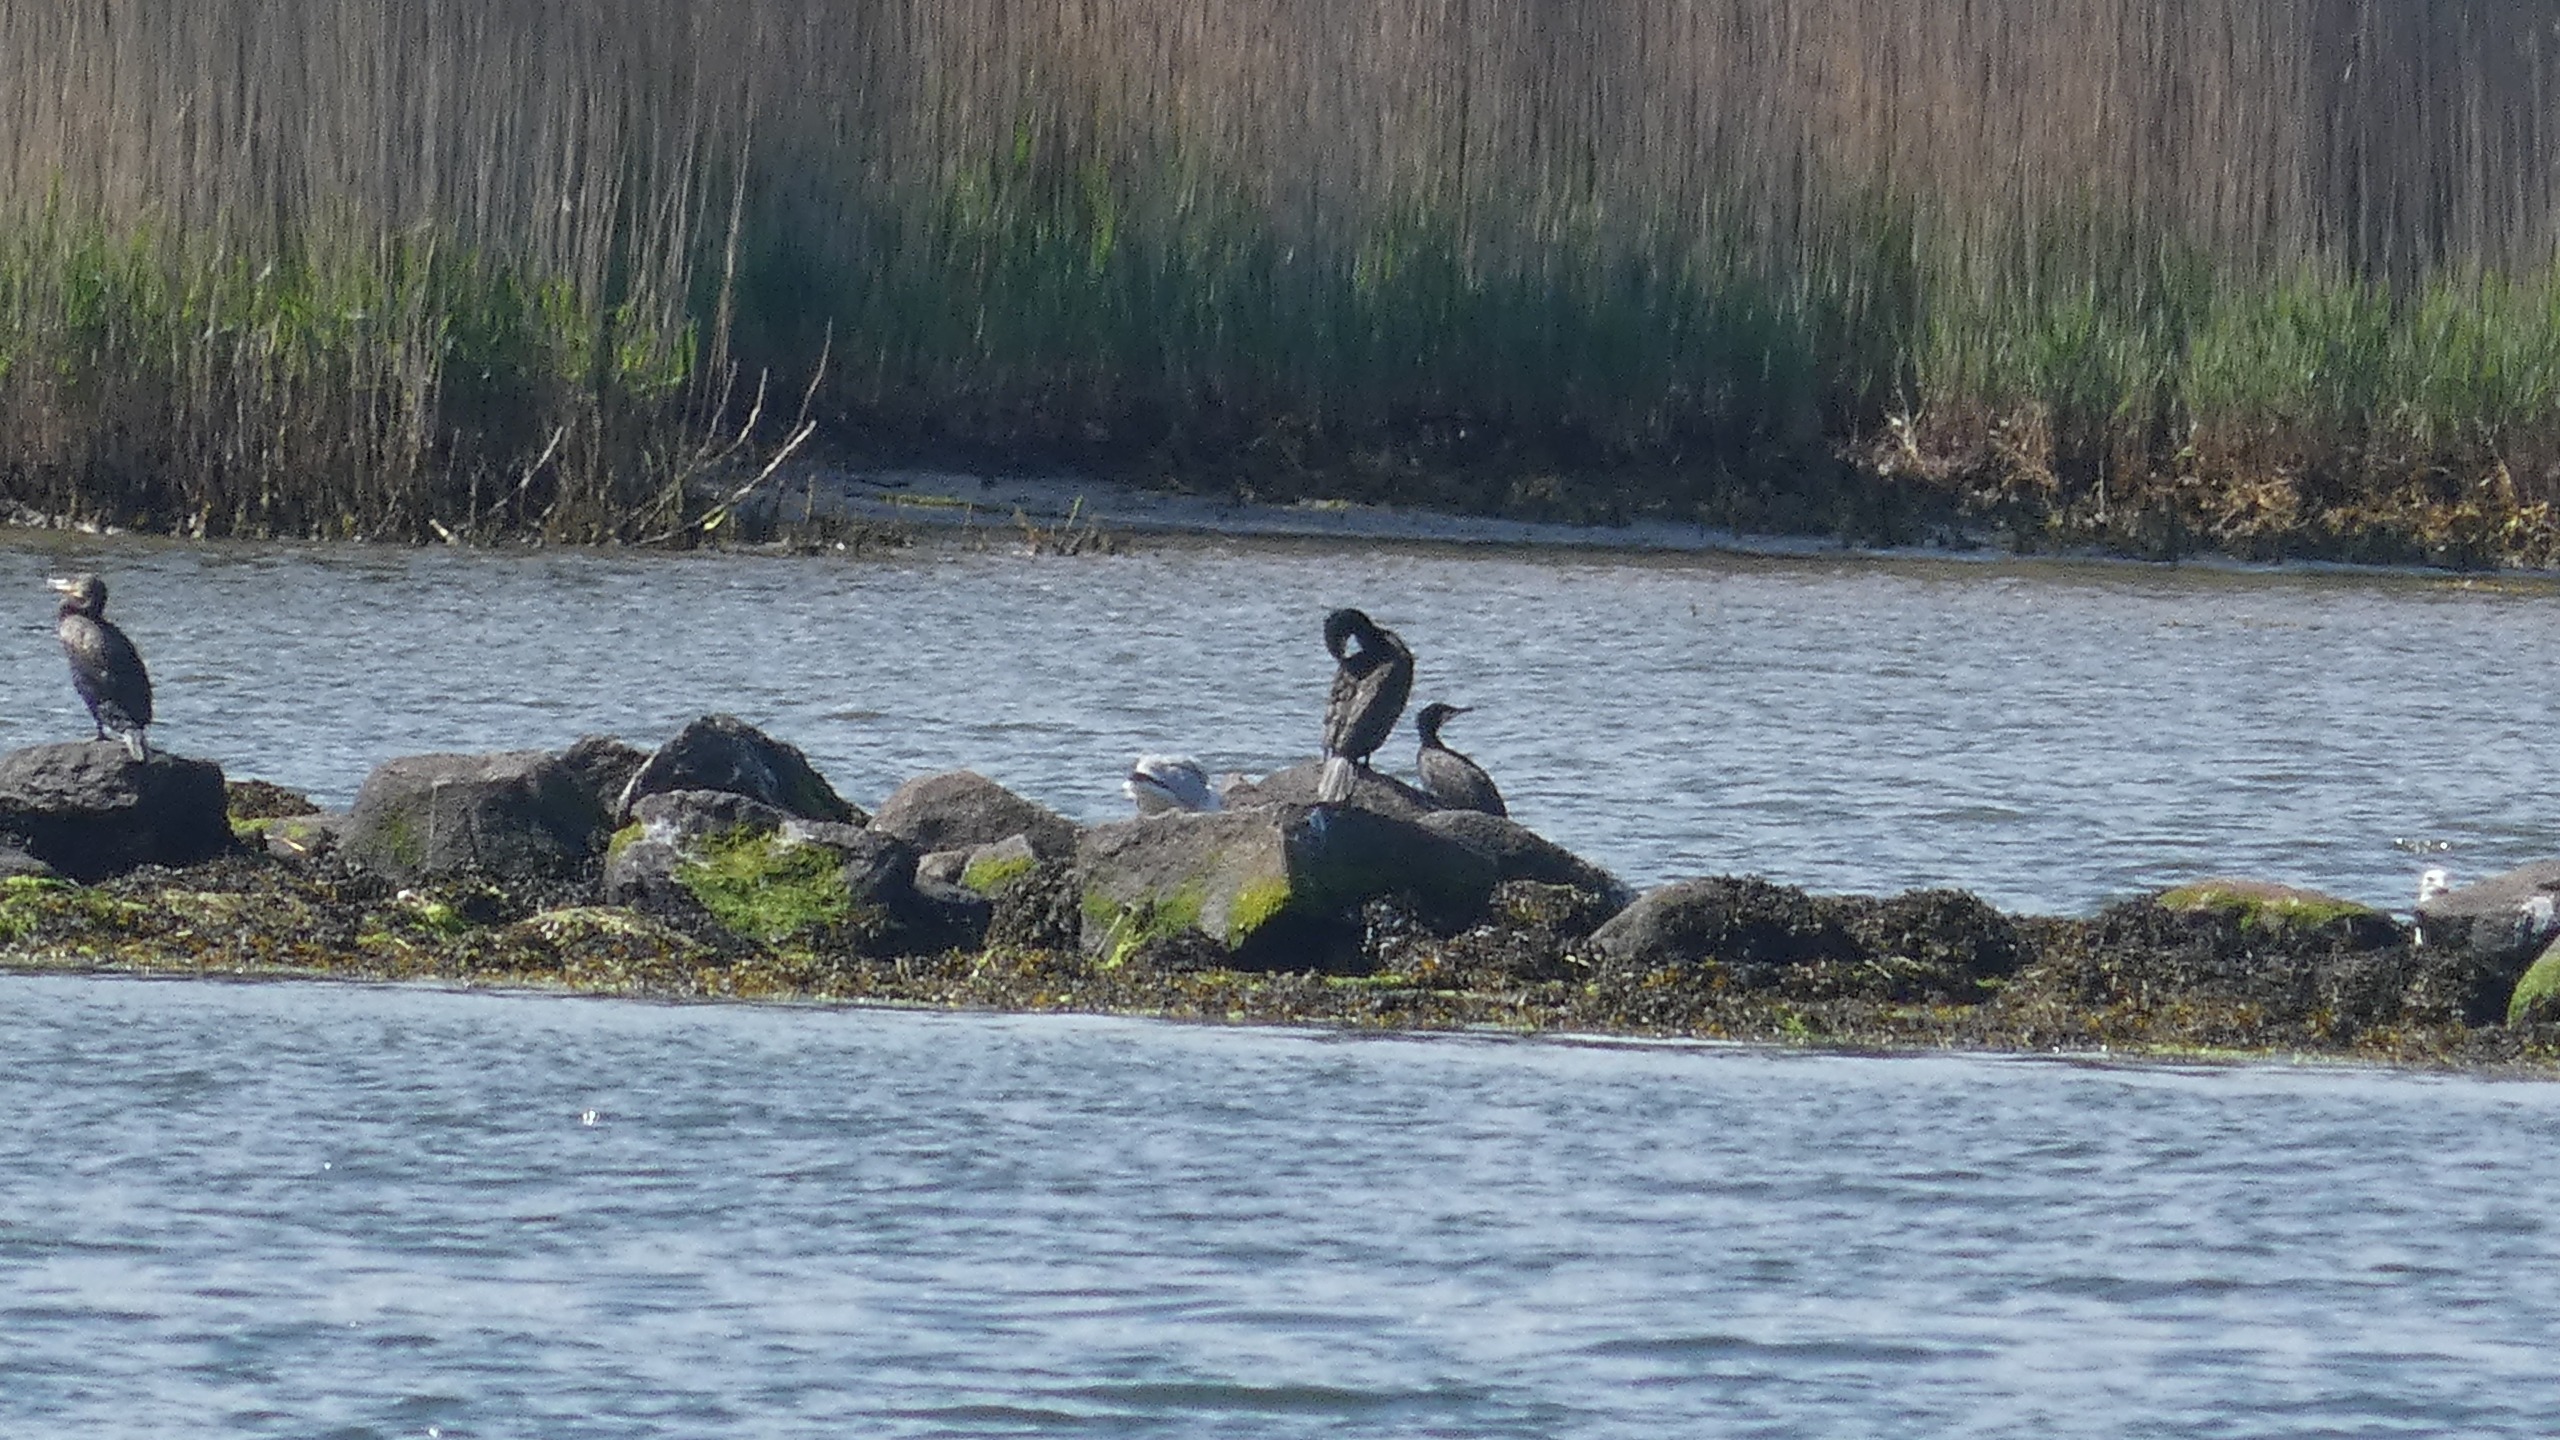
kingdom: Animalia
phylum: Chordata
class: Aves
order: Suliformes
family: Phalacrocoracidae
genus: Phalacrocorax
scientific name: Phalacrocorax carbo
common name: Skarv
